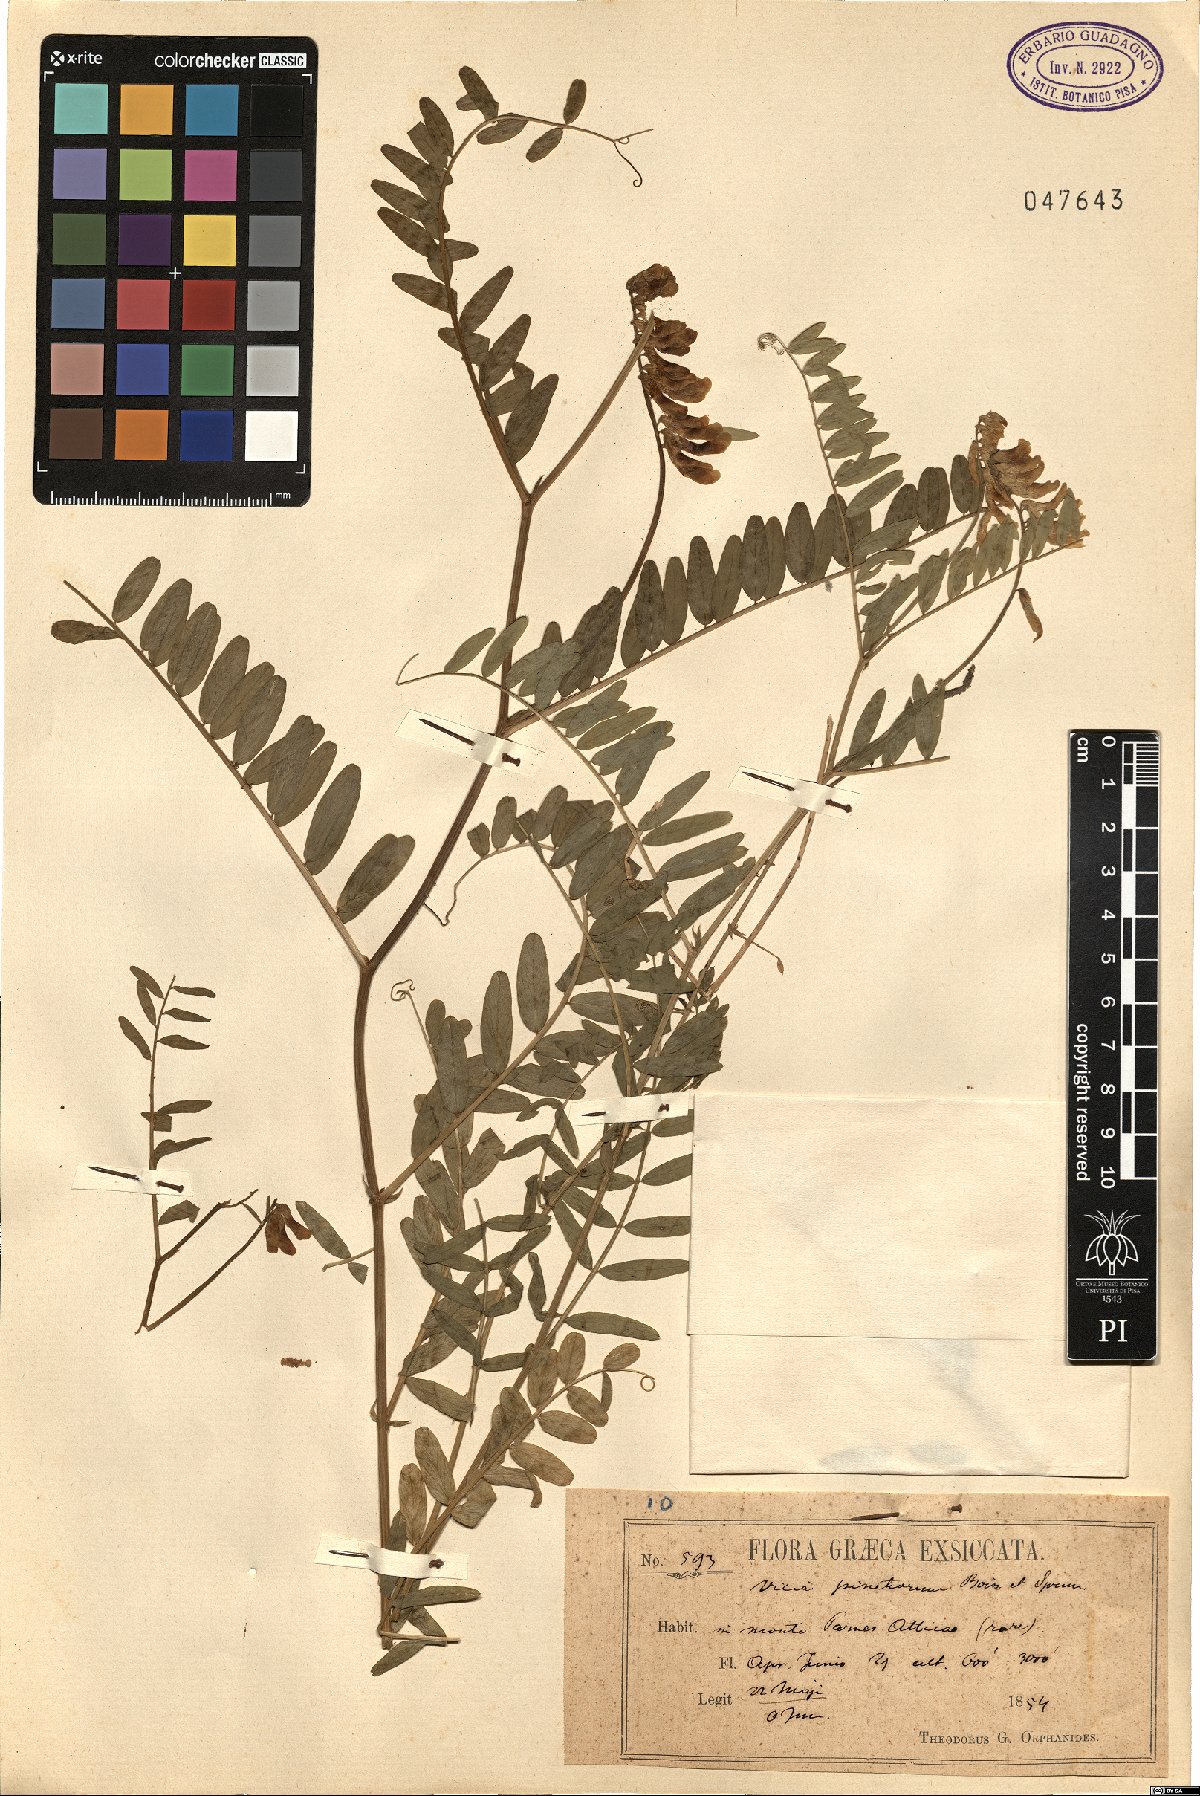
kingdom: Plantae
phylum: Tracheophyta
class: Magnoliopsida
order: Fabales
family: Fabaceae
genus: Vicia
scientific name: Vicia pinetorum
